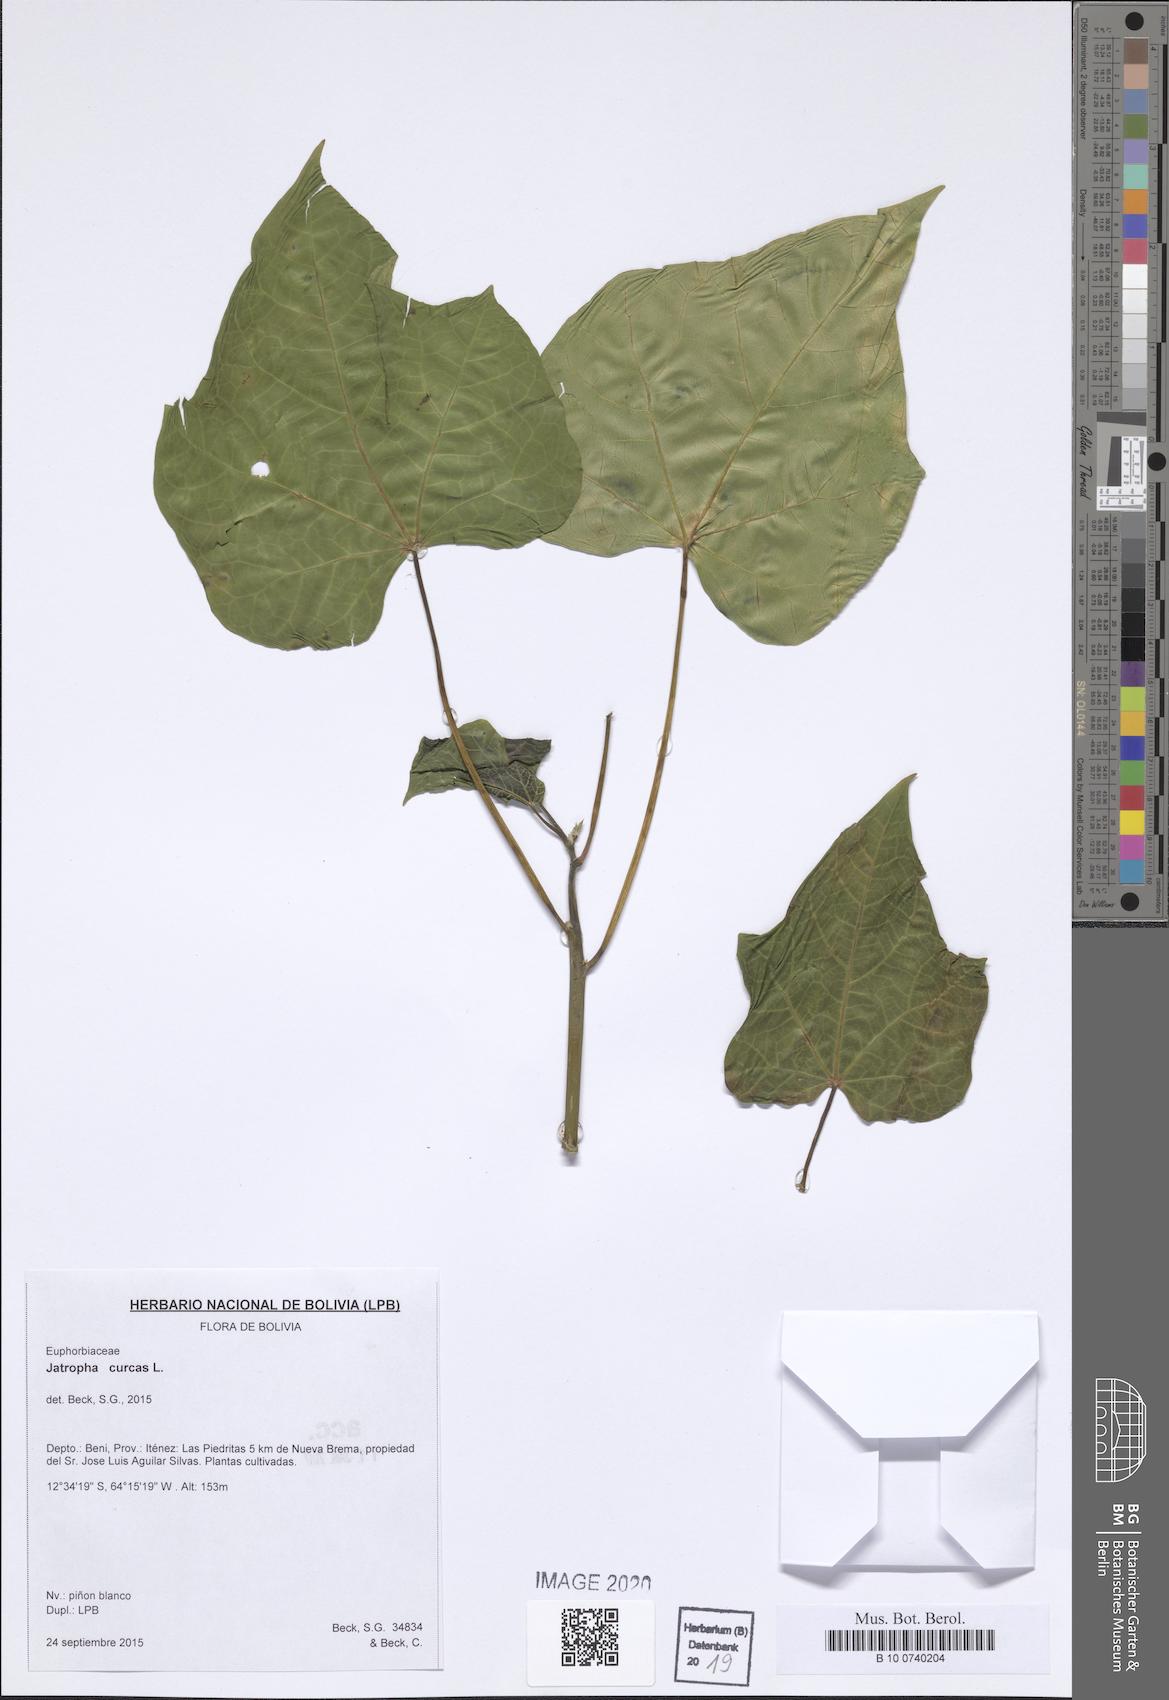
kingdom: Plantae
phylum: Tracheophyta
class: Magnoliopsida
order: Malpighiales
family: Euphorbiaceae
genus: Jatropha
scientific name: Jatropha curcas
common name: Barbados nut
